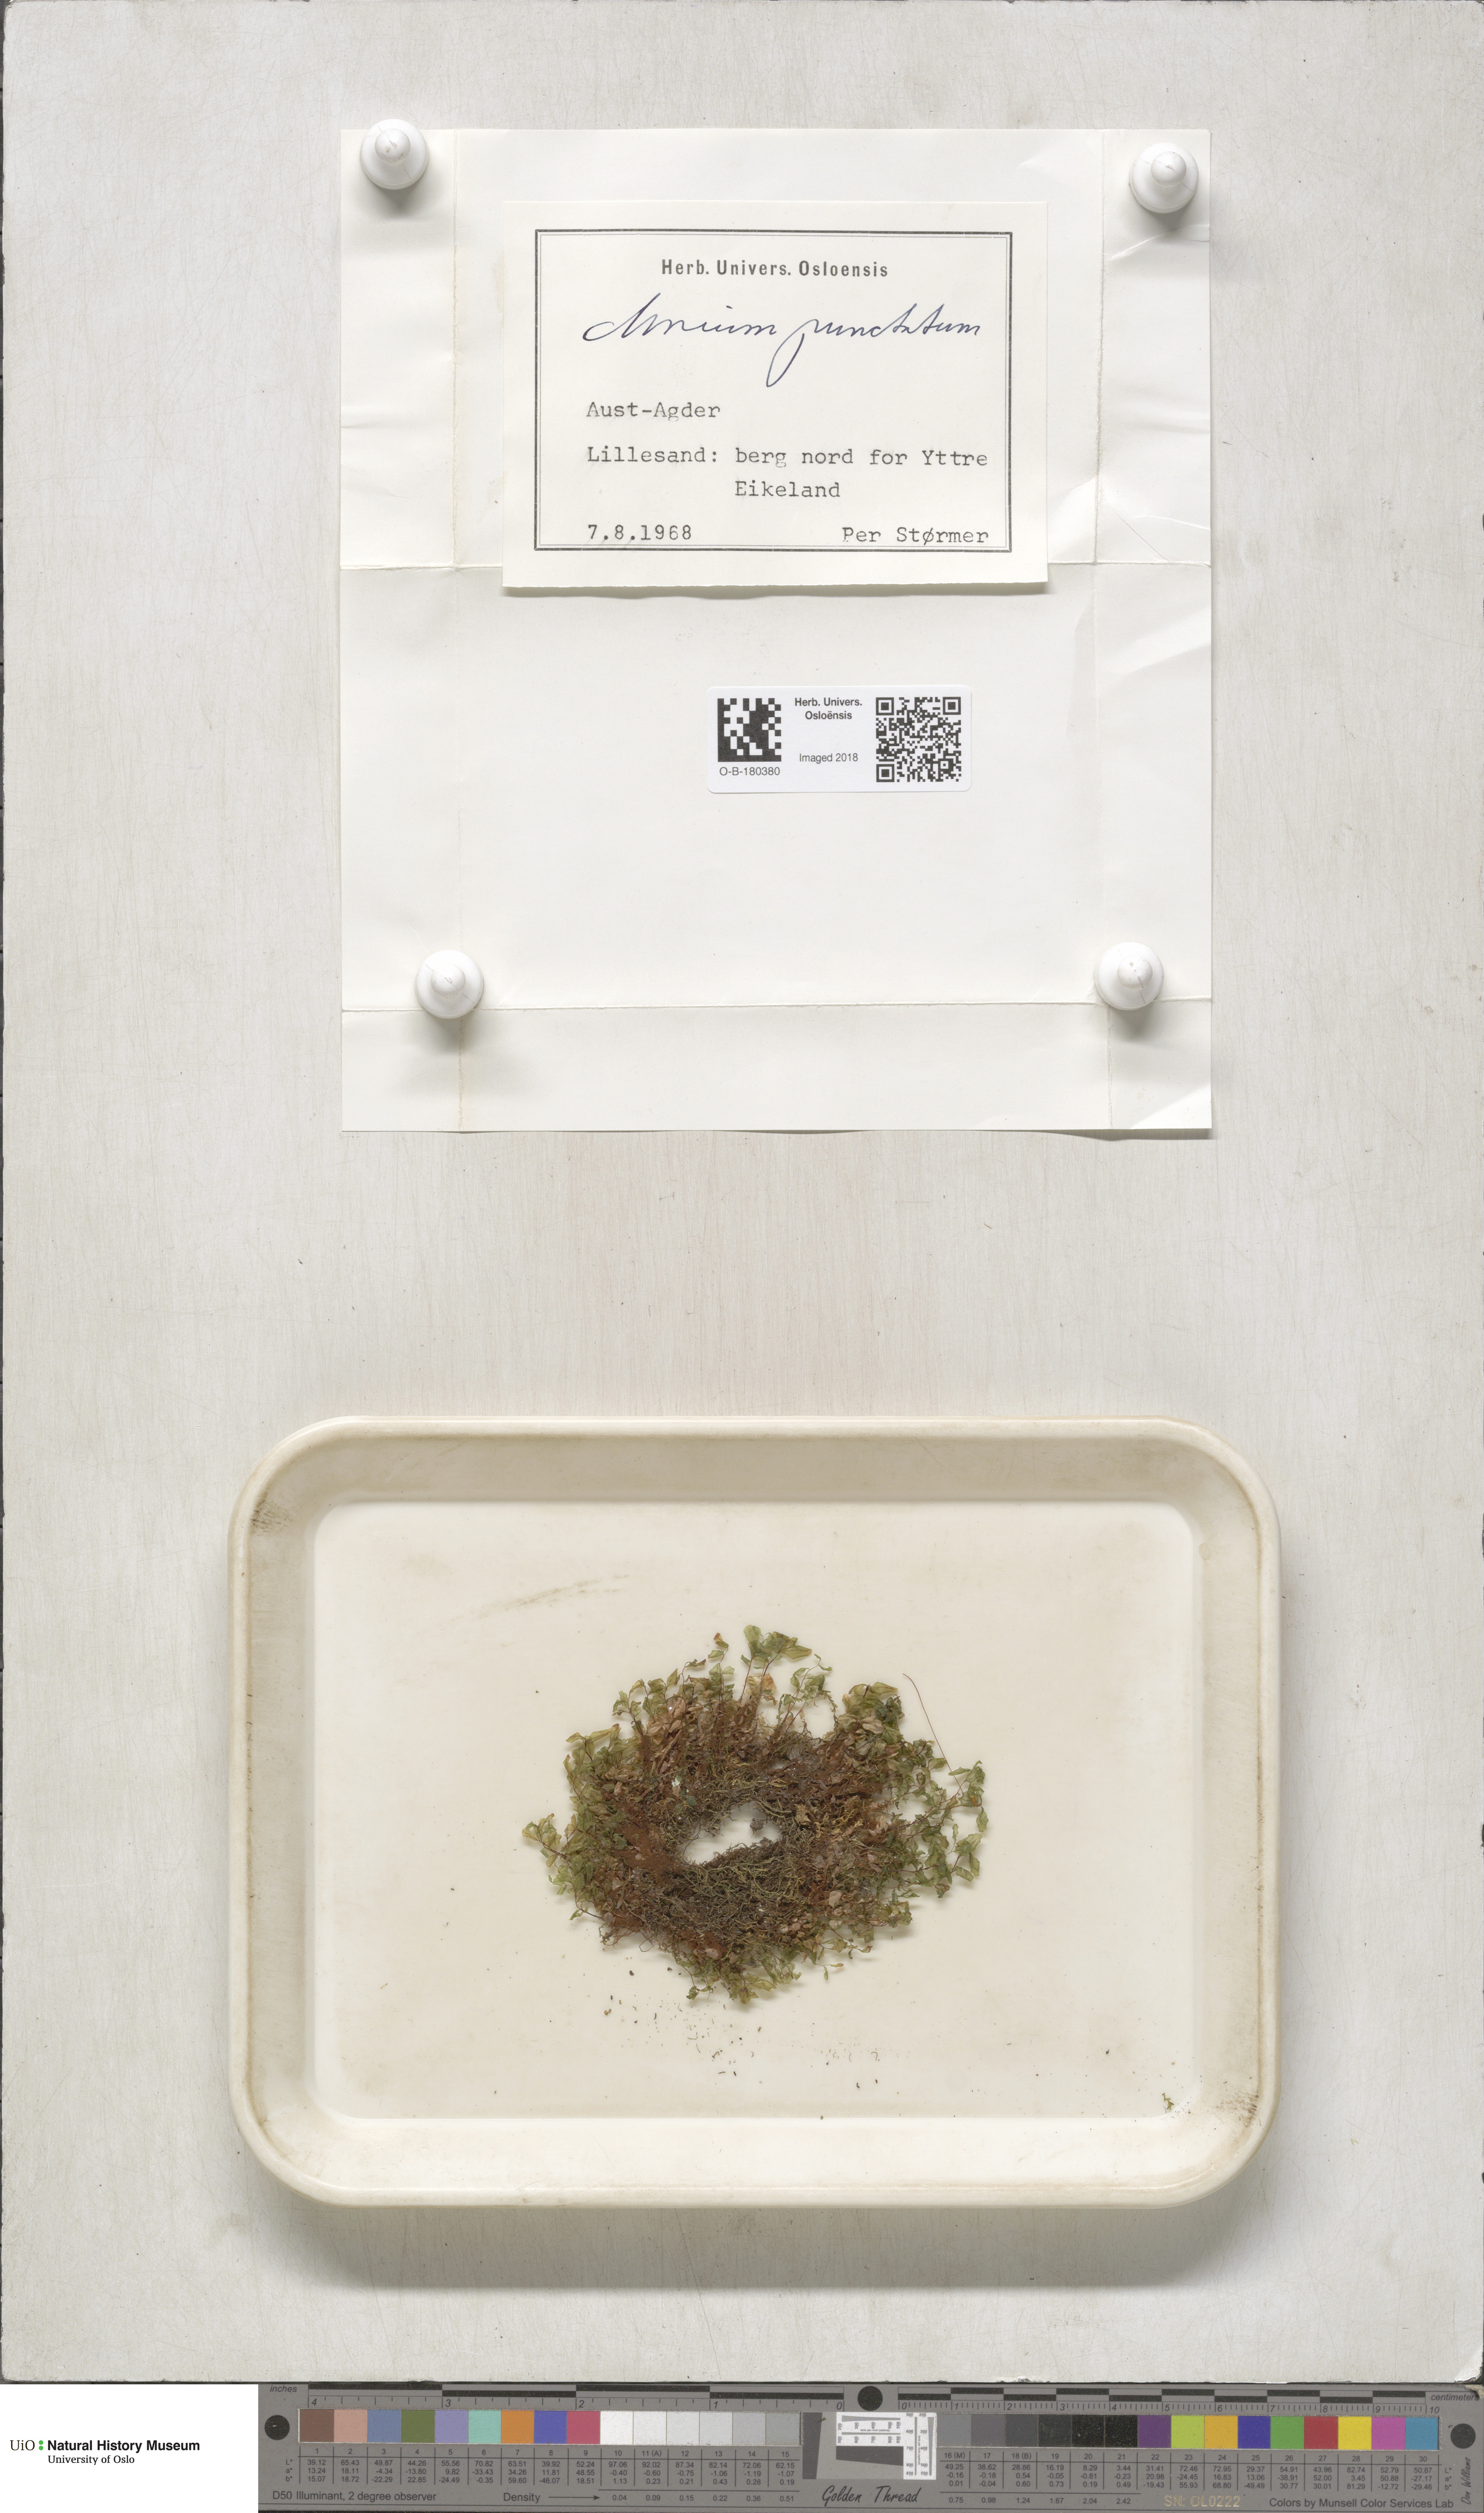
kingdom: Plantae
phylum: Bryophyta
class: Bryopsida
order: Bryales
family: Mniaceae
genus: Rhizomnium
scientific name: Rhizomnium punctatum
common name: Dotted leafy moss
